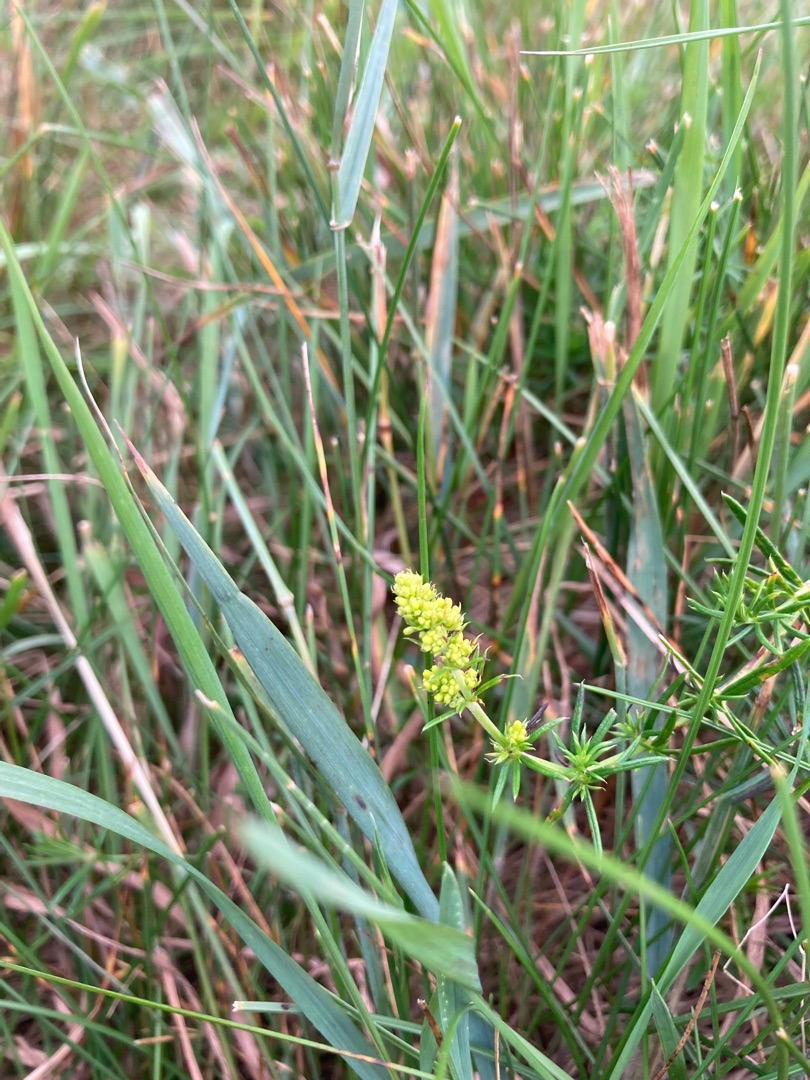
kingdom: Plantae
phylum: Tracheophyta
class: Magnoliopsida
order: Gentianales
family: Rubiaceae
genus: Galium
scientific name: Galium verum
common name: Gul snerre
